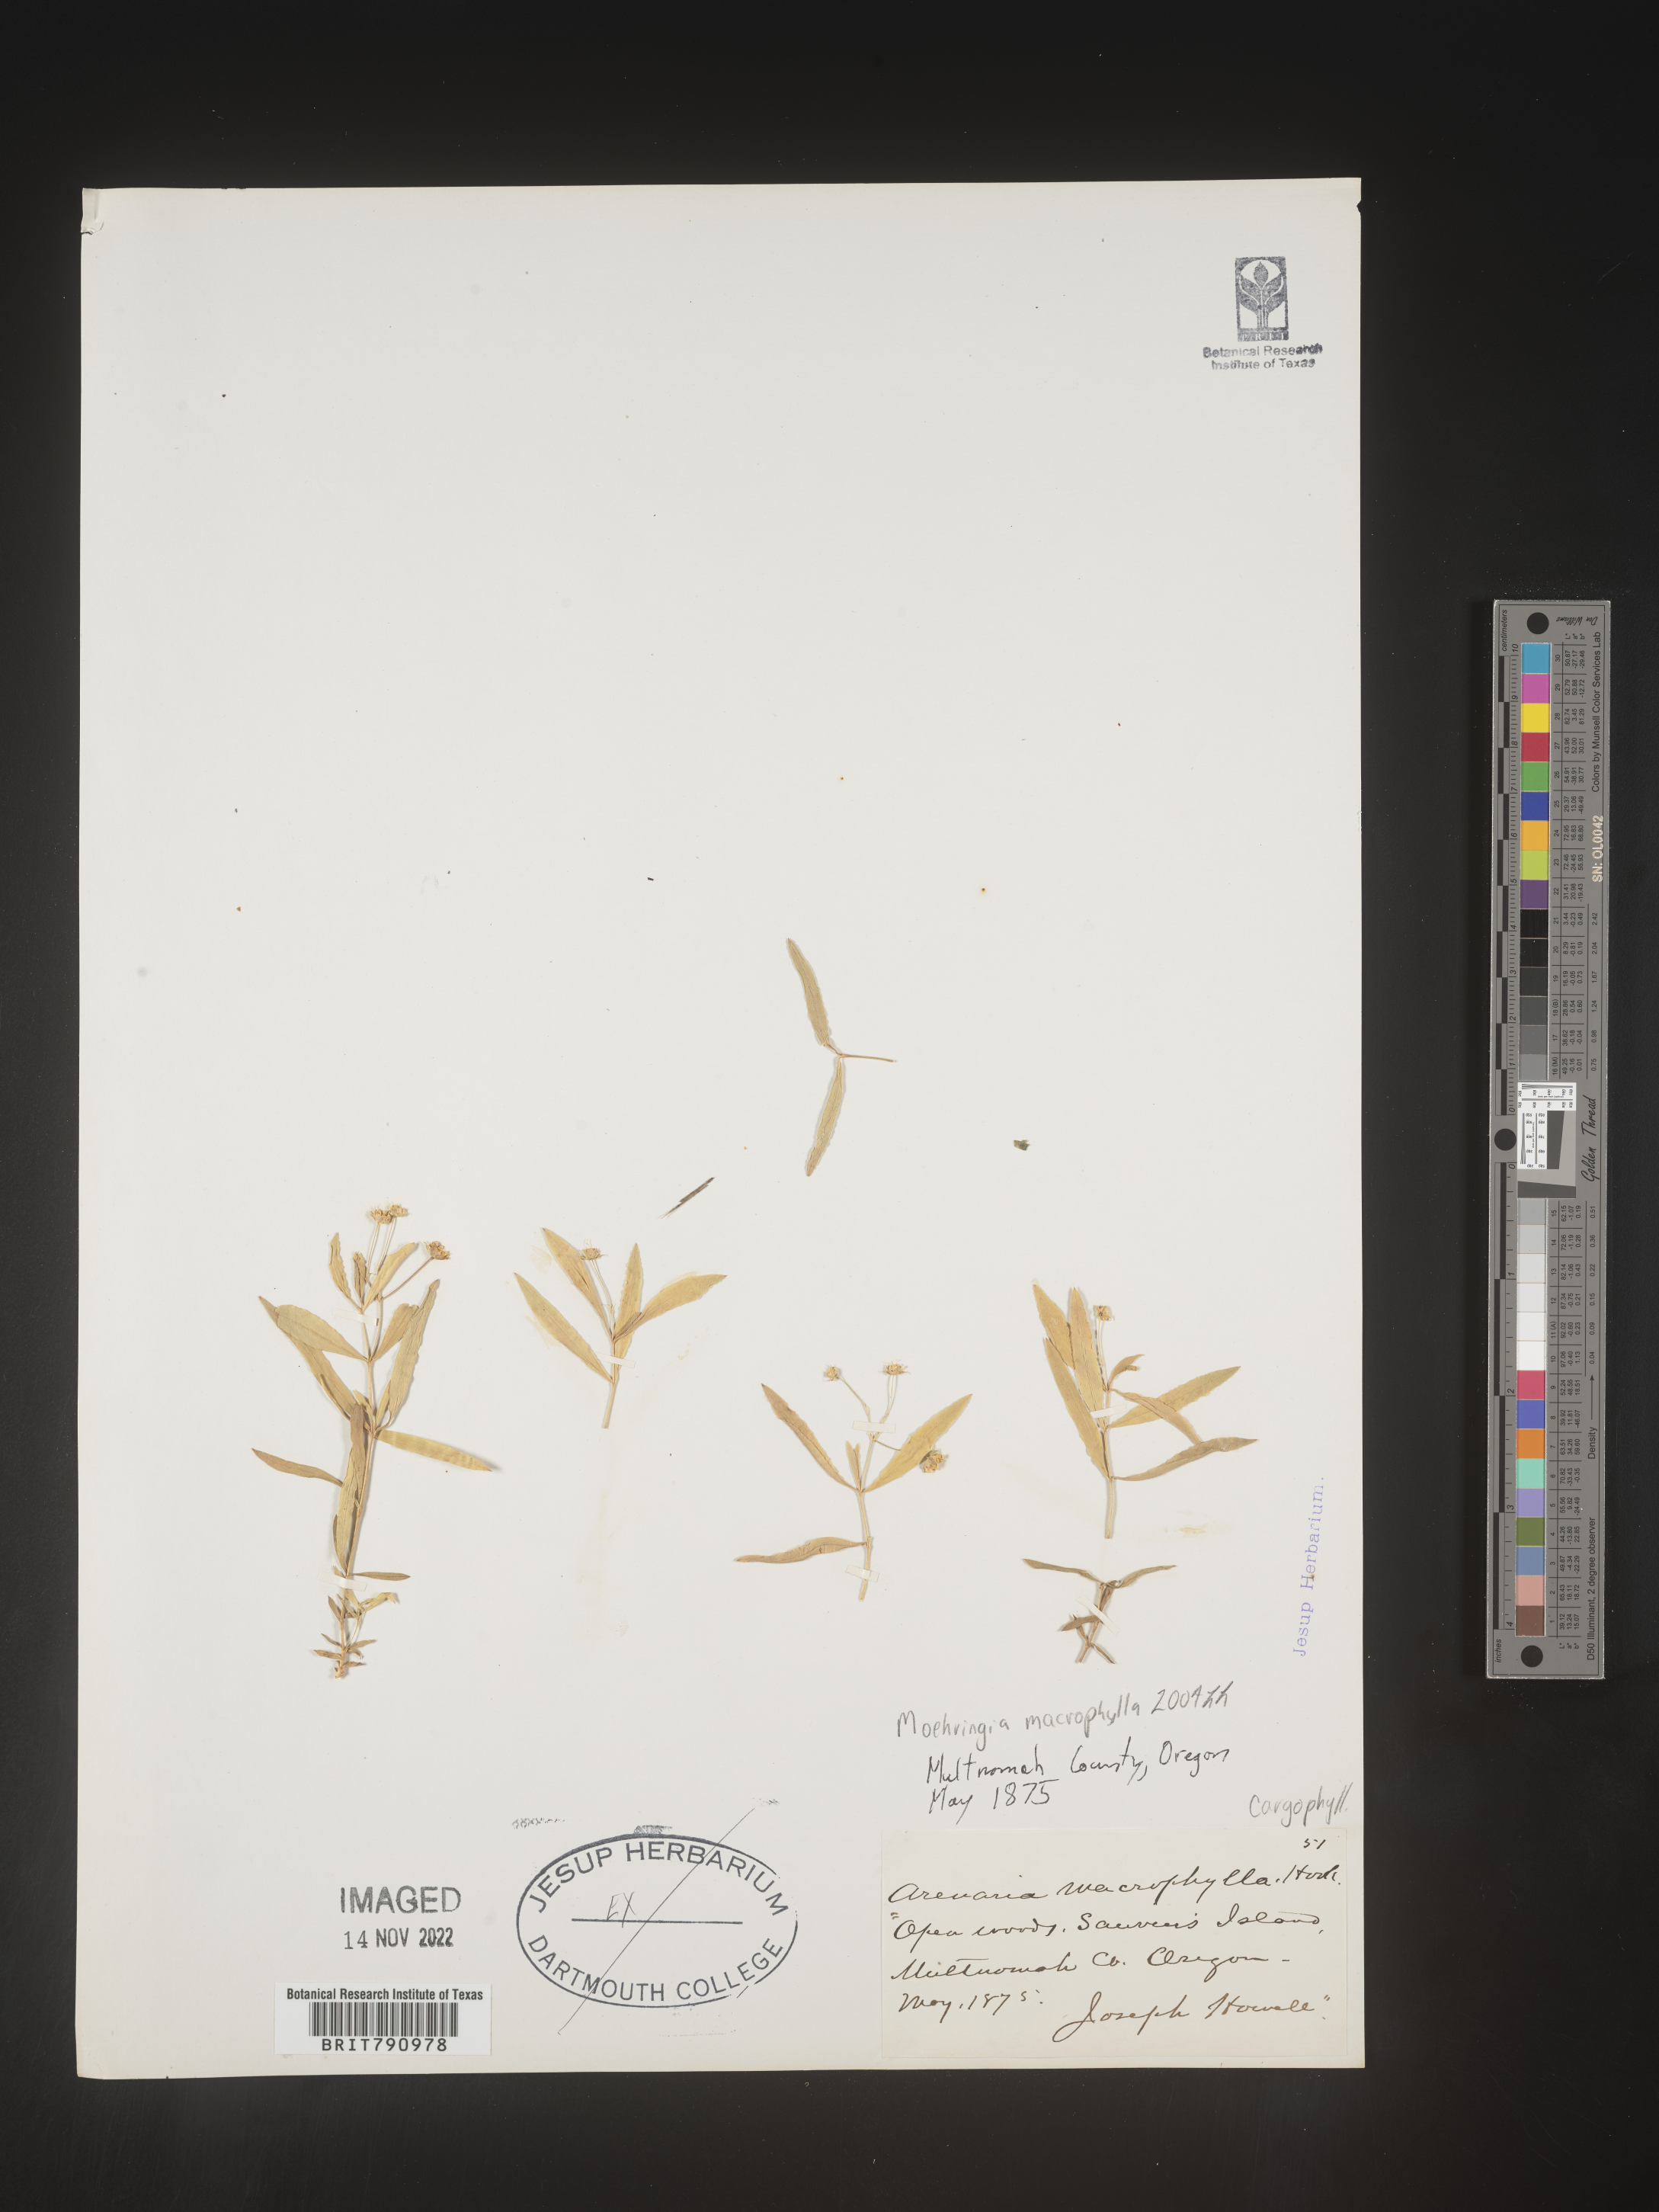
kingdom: Plantae
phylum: Tracheophyta
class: Magnoliopsida
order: Caryophyllales
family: Caryophyllaceae
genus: Moehringia
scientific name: Moehringia
